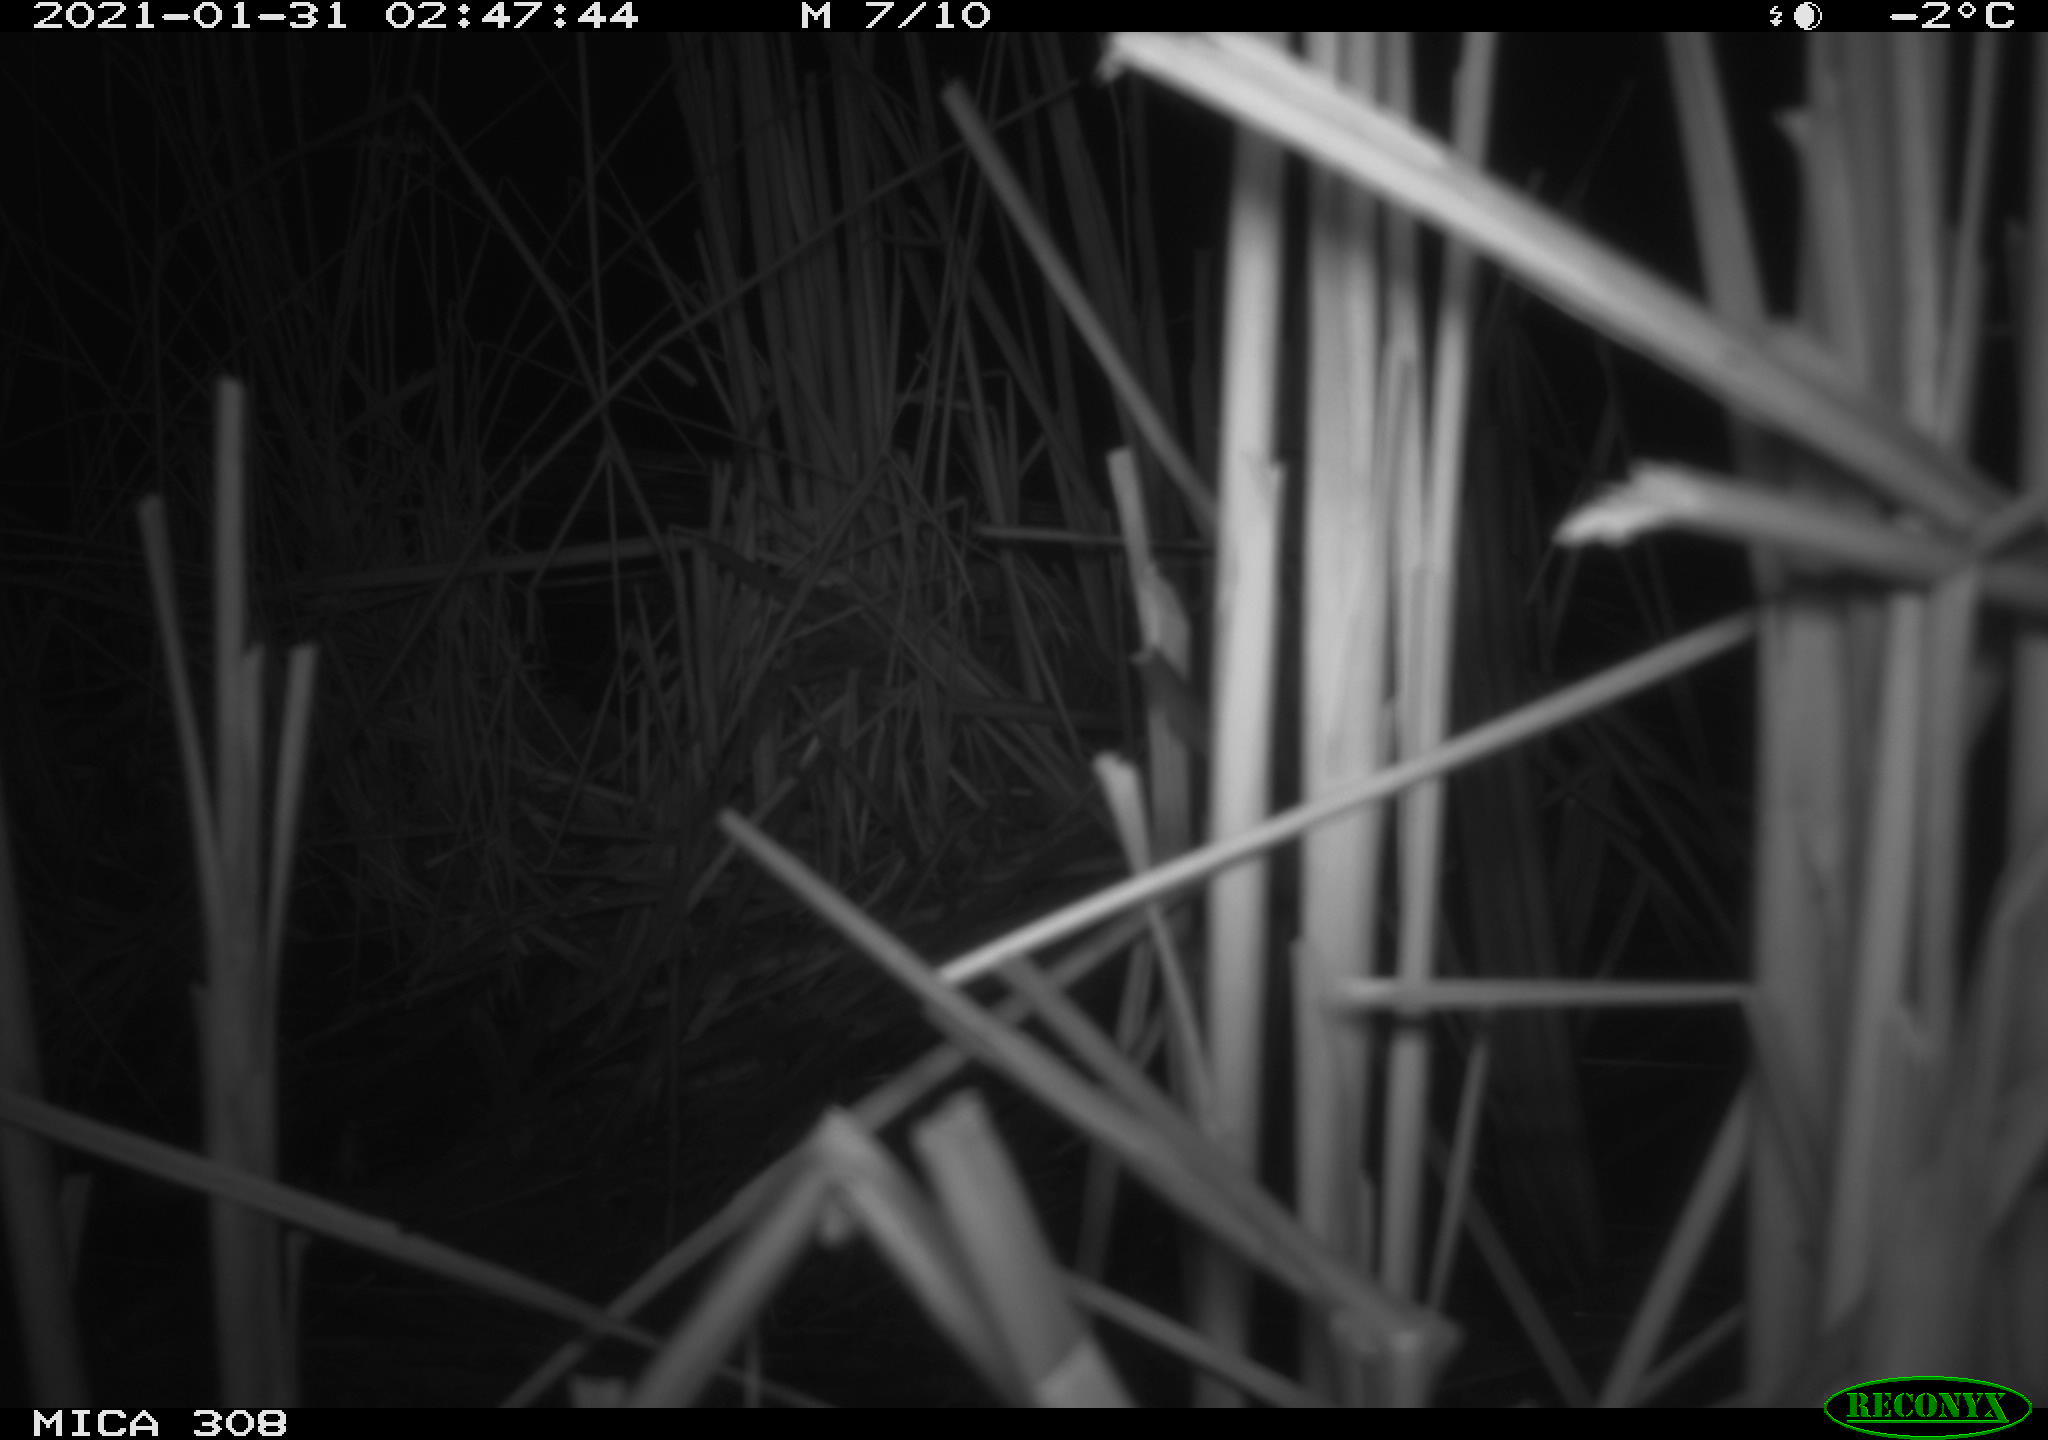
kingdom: Animalia
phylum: Chordata
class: Mammalia
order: Rodentia
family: Muridae
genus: Rattus
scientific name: Rattus norvegicus
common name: Brown rat
